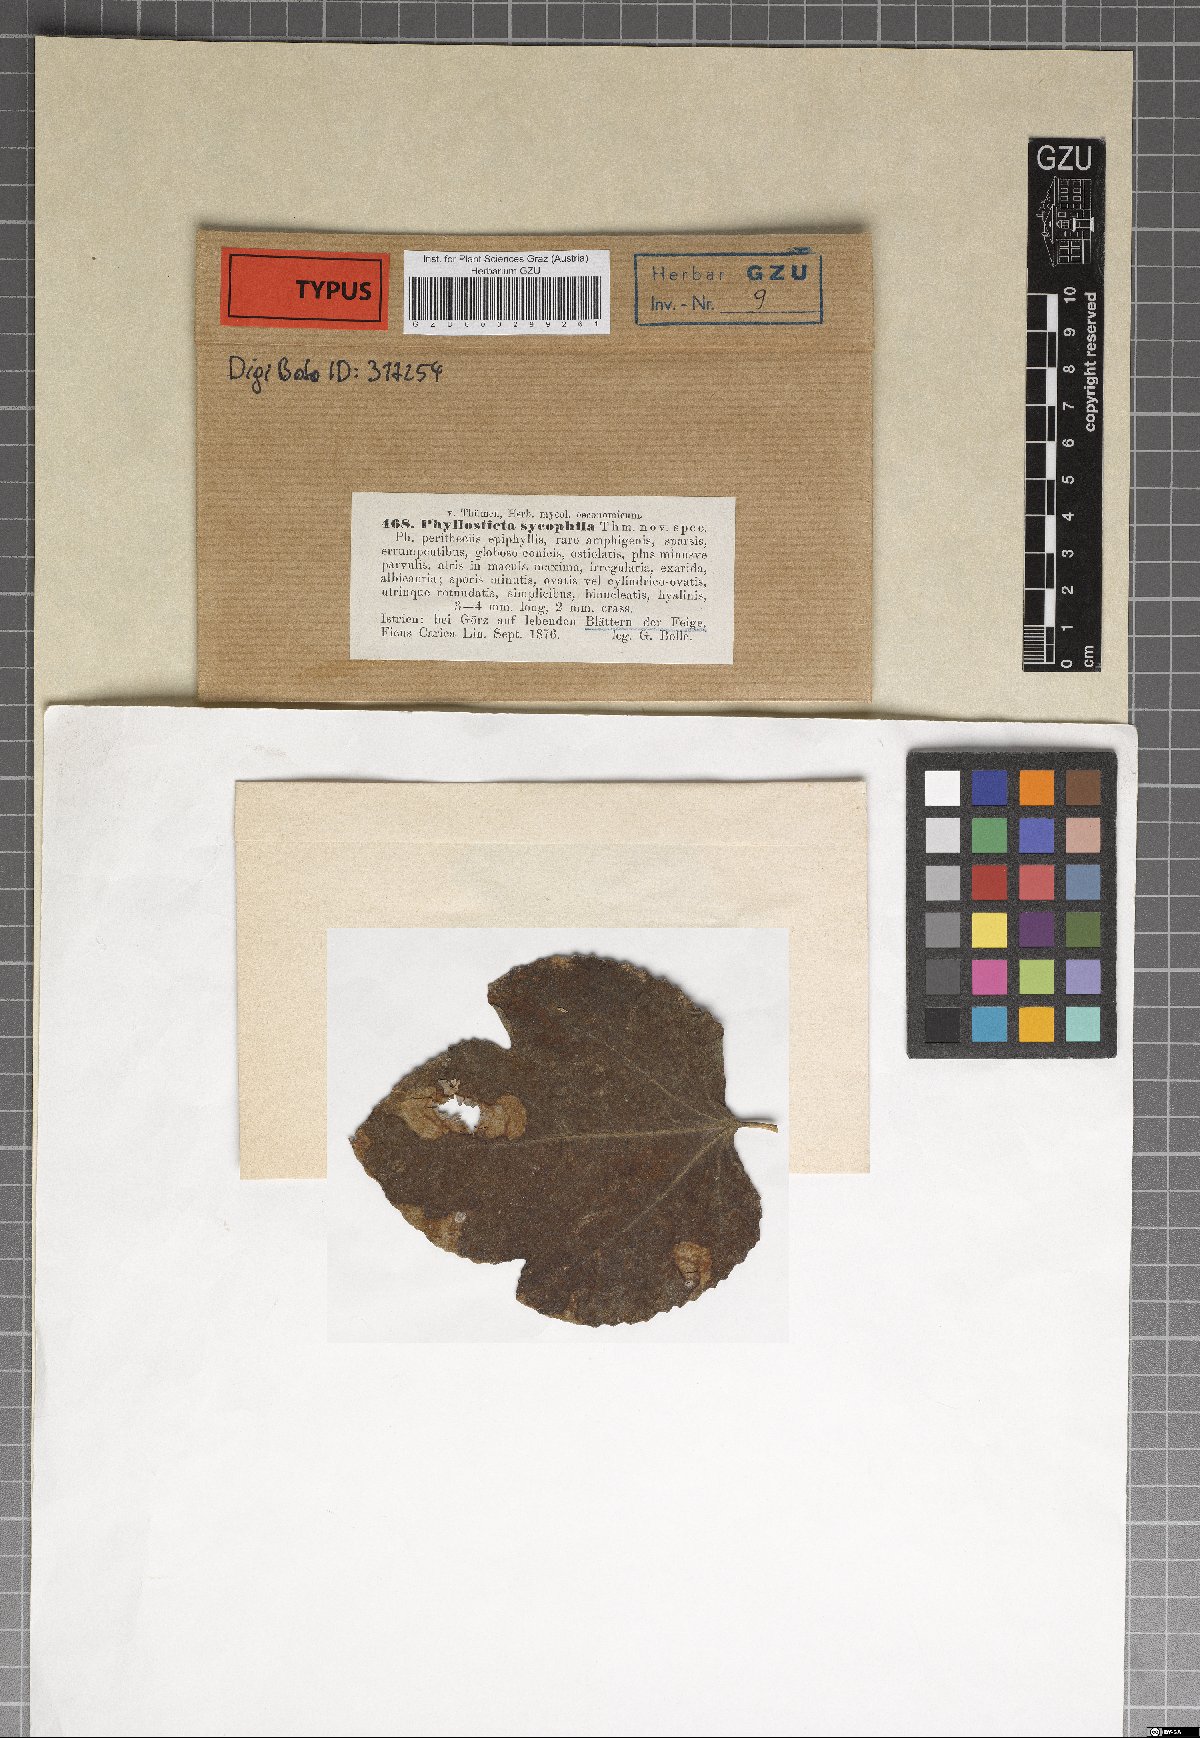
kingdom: Fungi
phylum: Ascomycota
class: Dothideomycetes
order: Botryosphaeriales
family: Botryosphaeriaceae
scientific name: Botryosphaeriaceae
